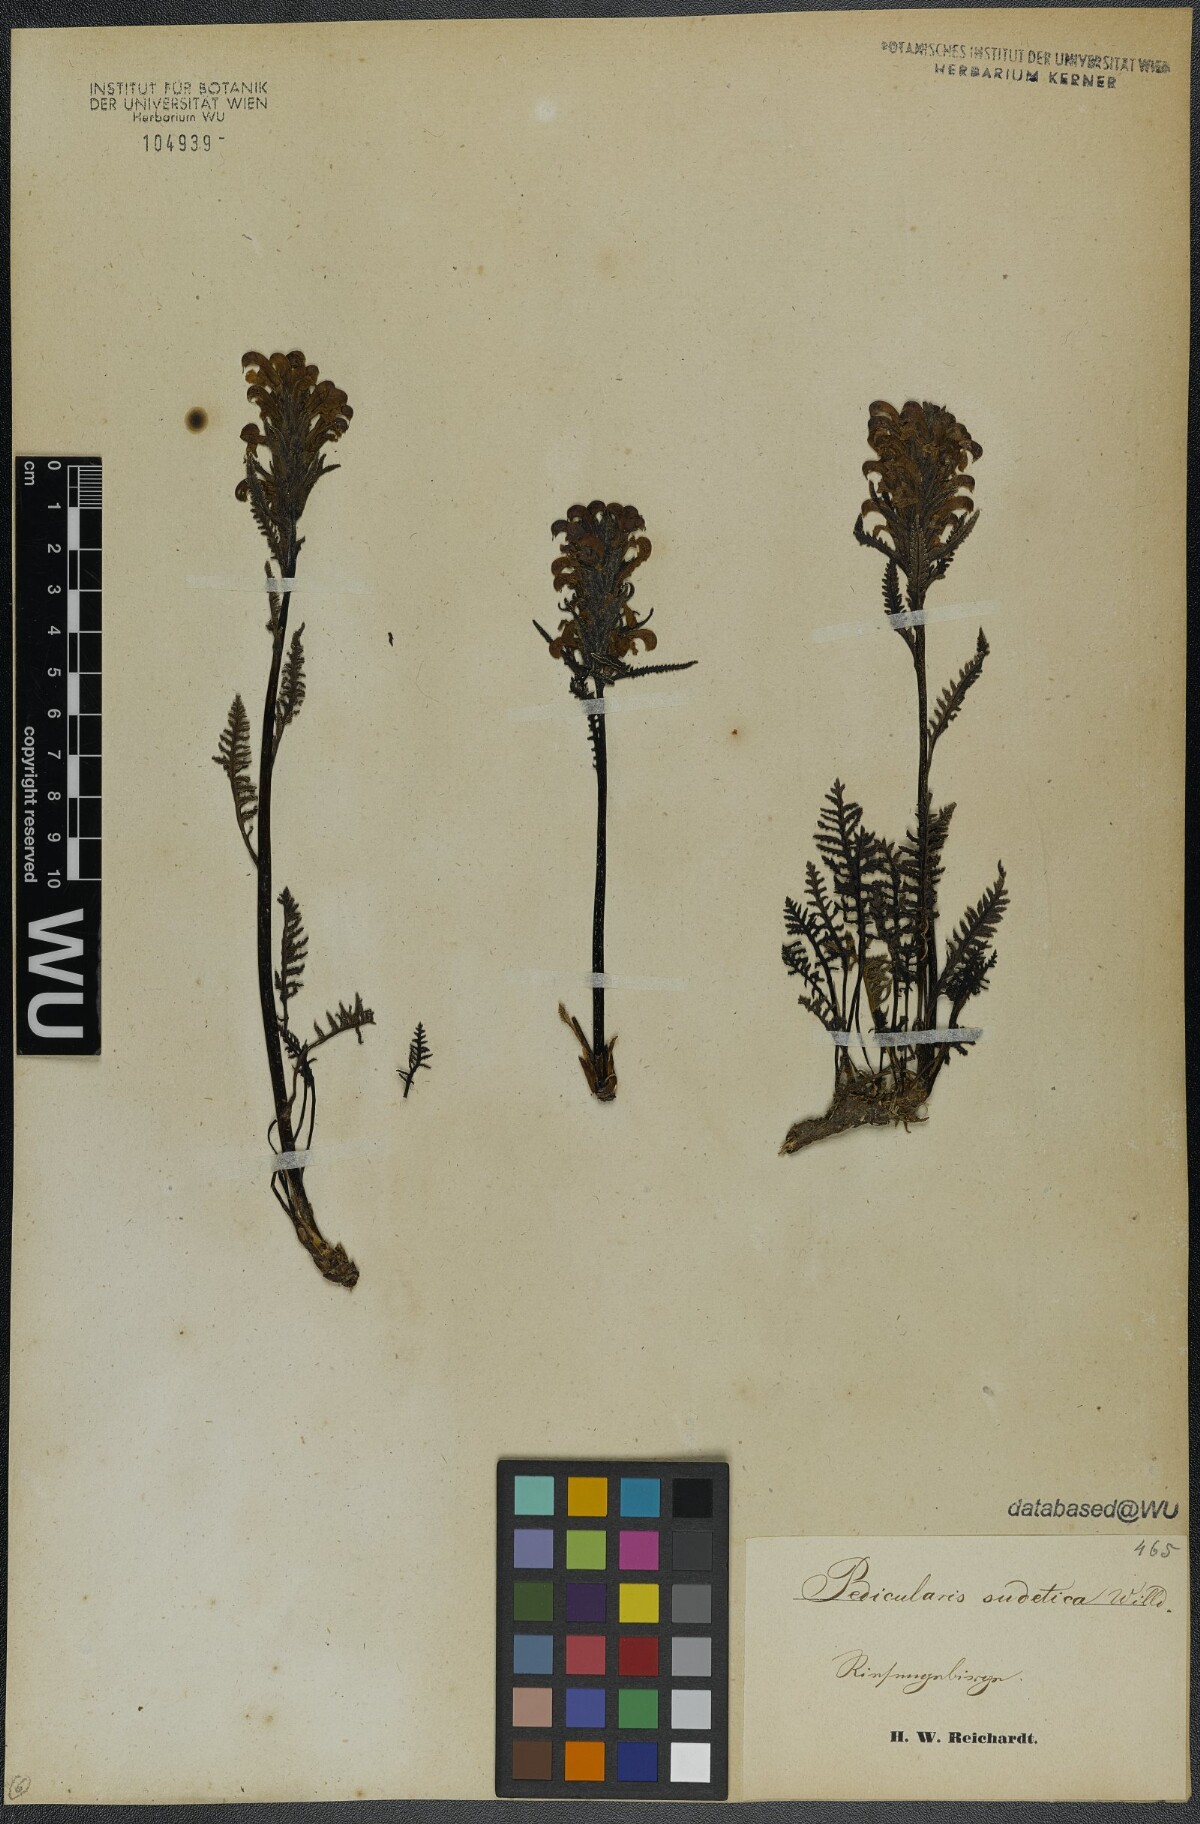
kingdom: Plantae
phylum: Tracheophyta
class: Magnoliopsida
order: Lamiales
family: Orobanchaceae
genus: Pedicularis
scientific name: Pedicularis sudetica
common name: Sudeten lousewort
